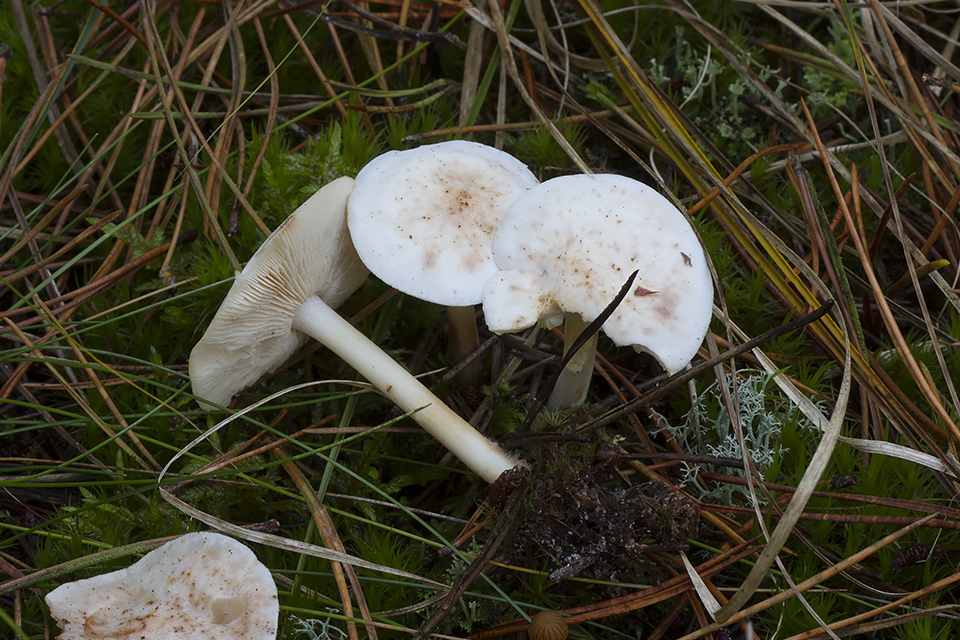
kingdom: Fungi
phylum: Basidiomycota
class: Agaricomycetes
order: Agaricales
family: Omphalotaceae
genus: Rhodocollybia
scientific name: Rhodocollybia maculata
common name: plettet fladhat
